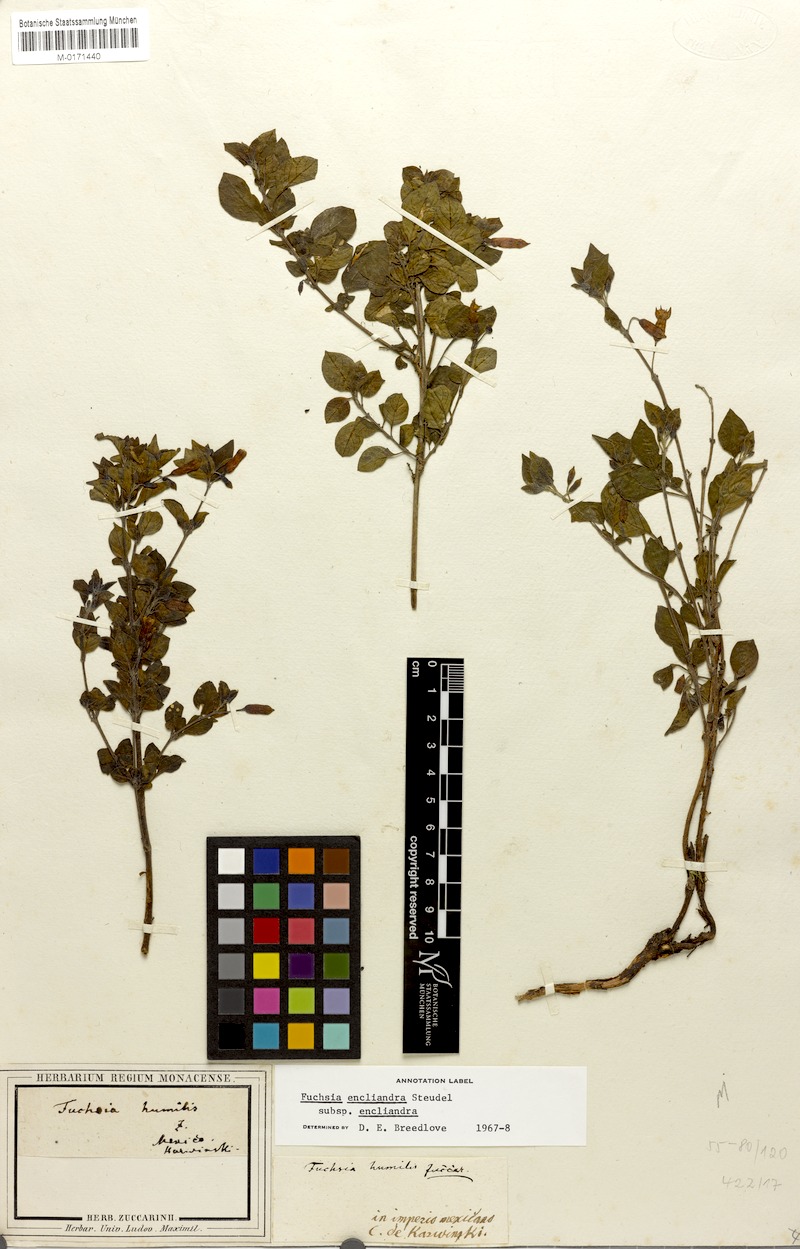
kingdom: Plantae
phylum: Tracheophyta
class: Magnoliopsida
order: Myrtales
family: Onagraceae
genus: Fuchsia
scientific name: Fuchsia encliandra
